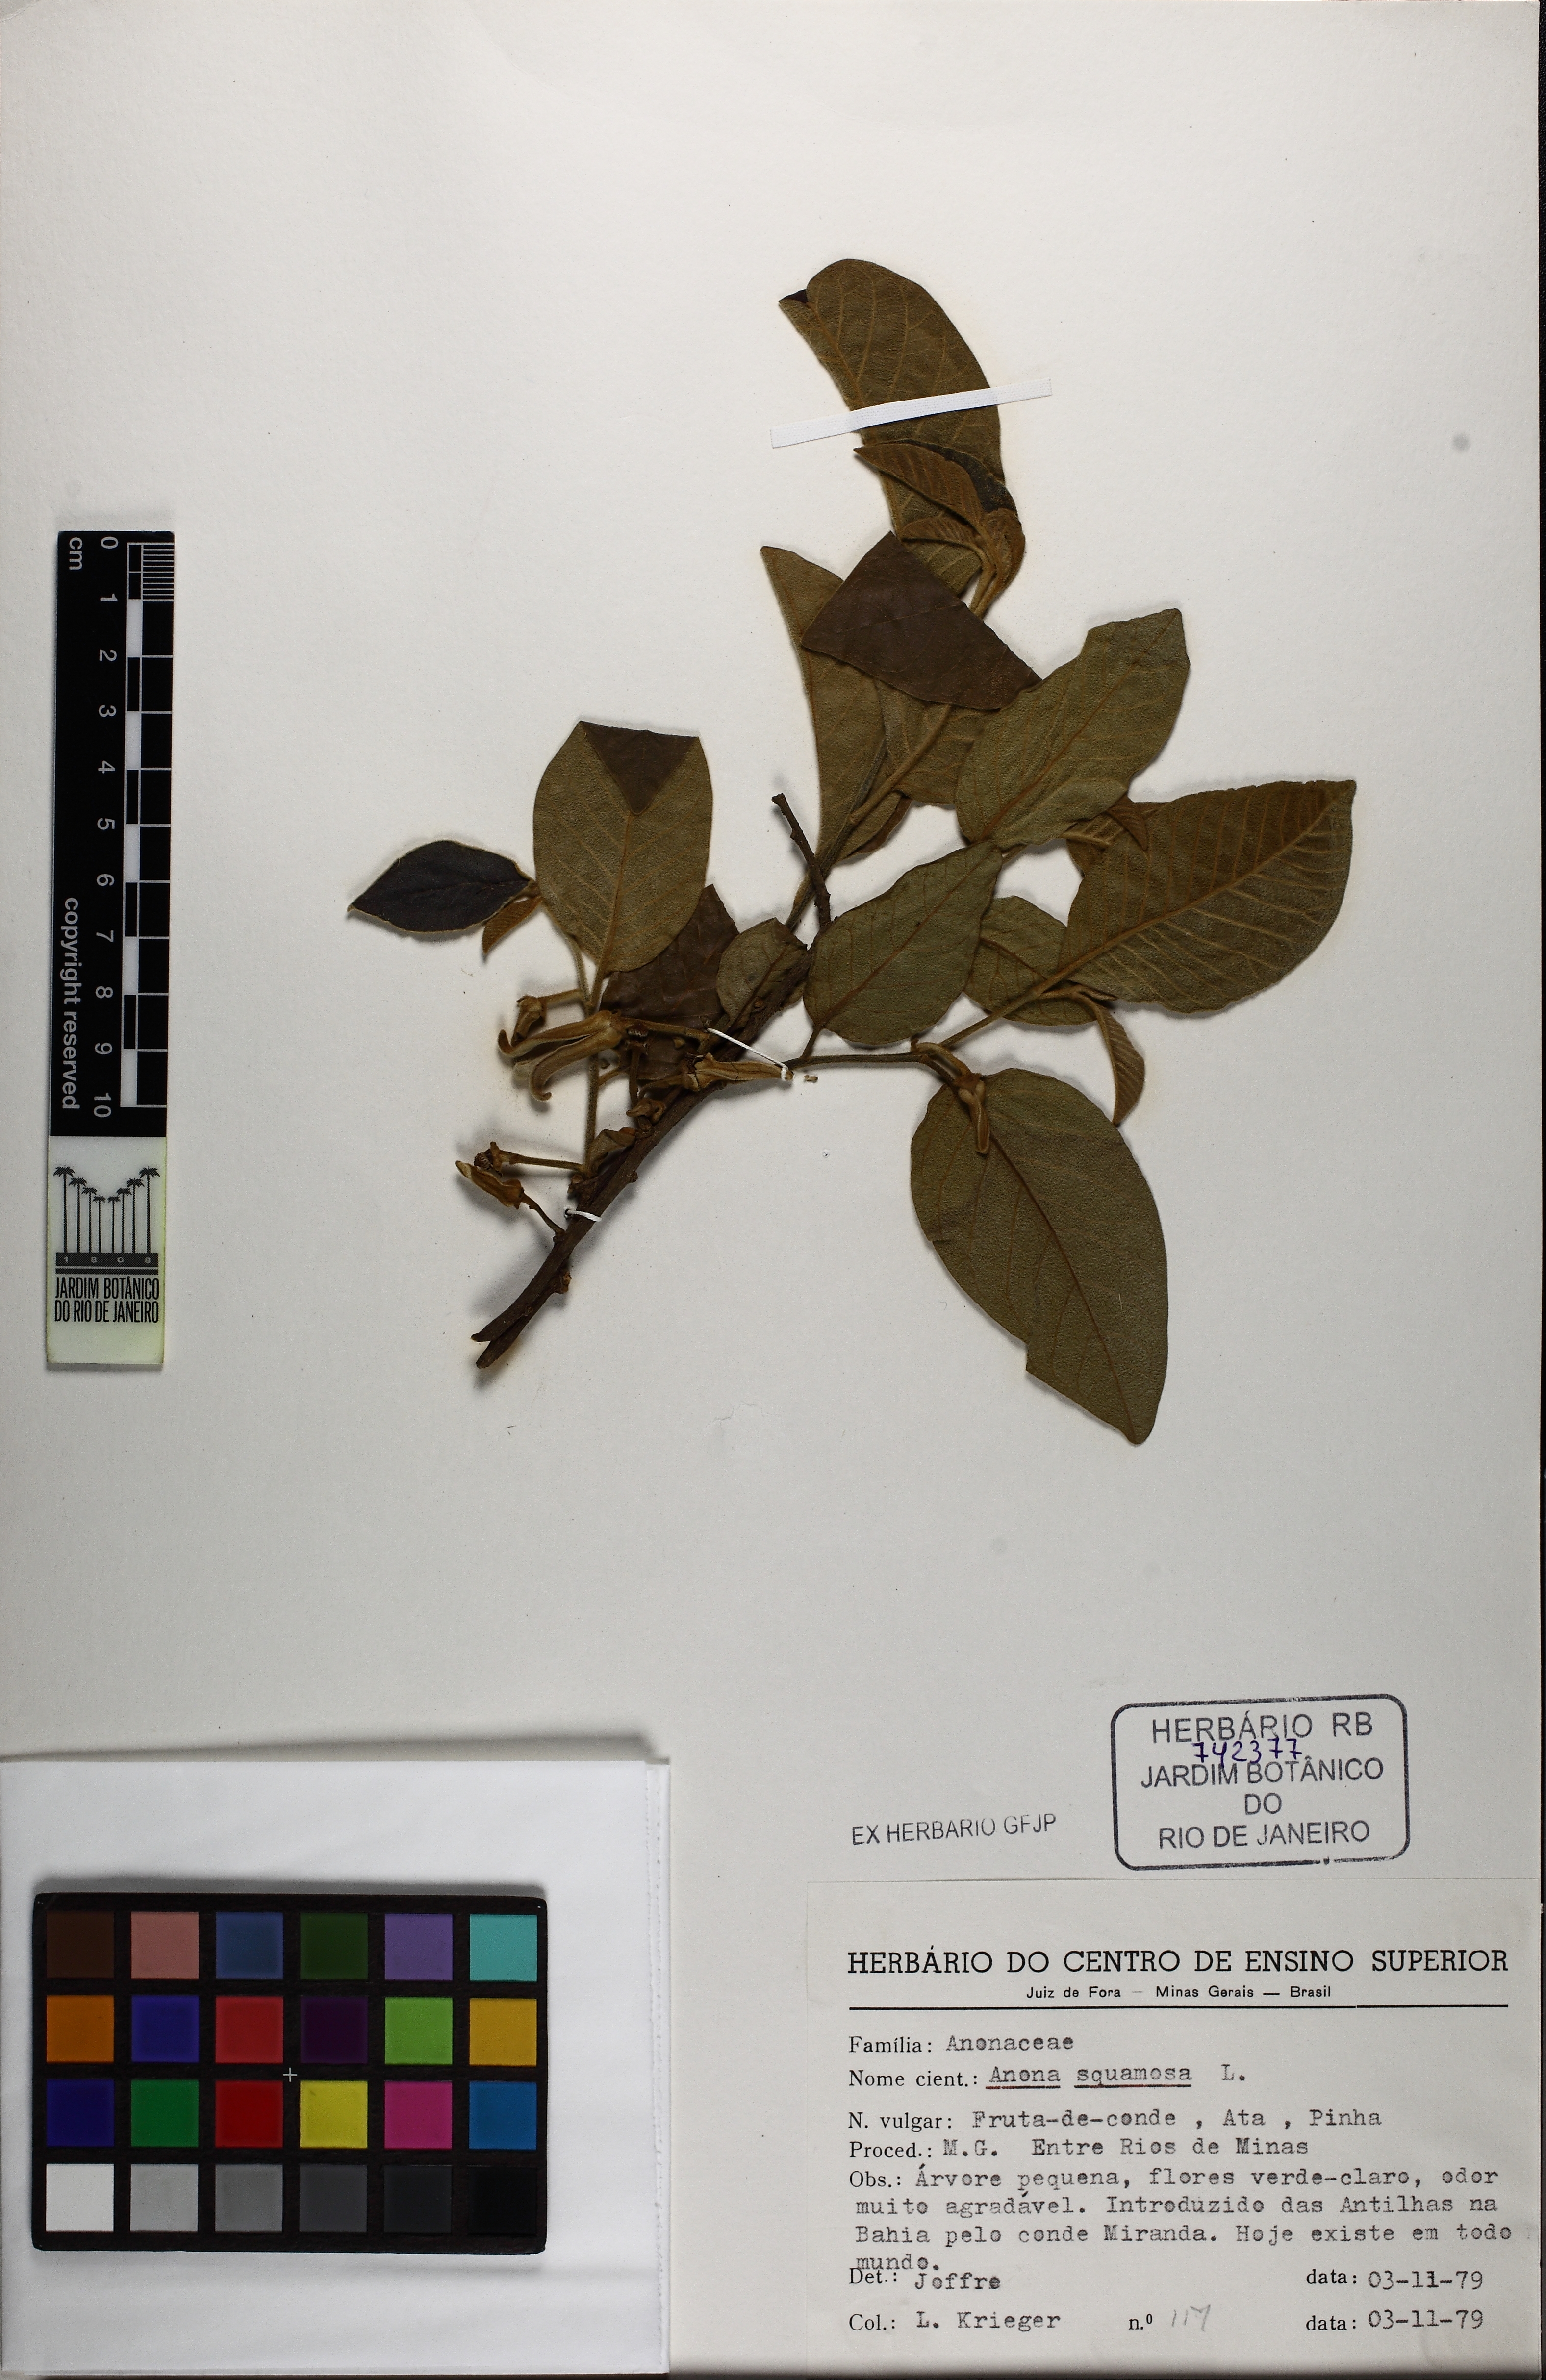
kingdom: Plantae
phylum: Tracheophyta
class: Magnoliopsida
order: Magnoliales
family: Annonaceae
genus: Annona
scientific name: Annona squamosa
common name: Custard-apple
